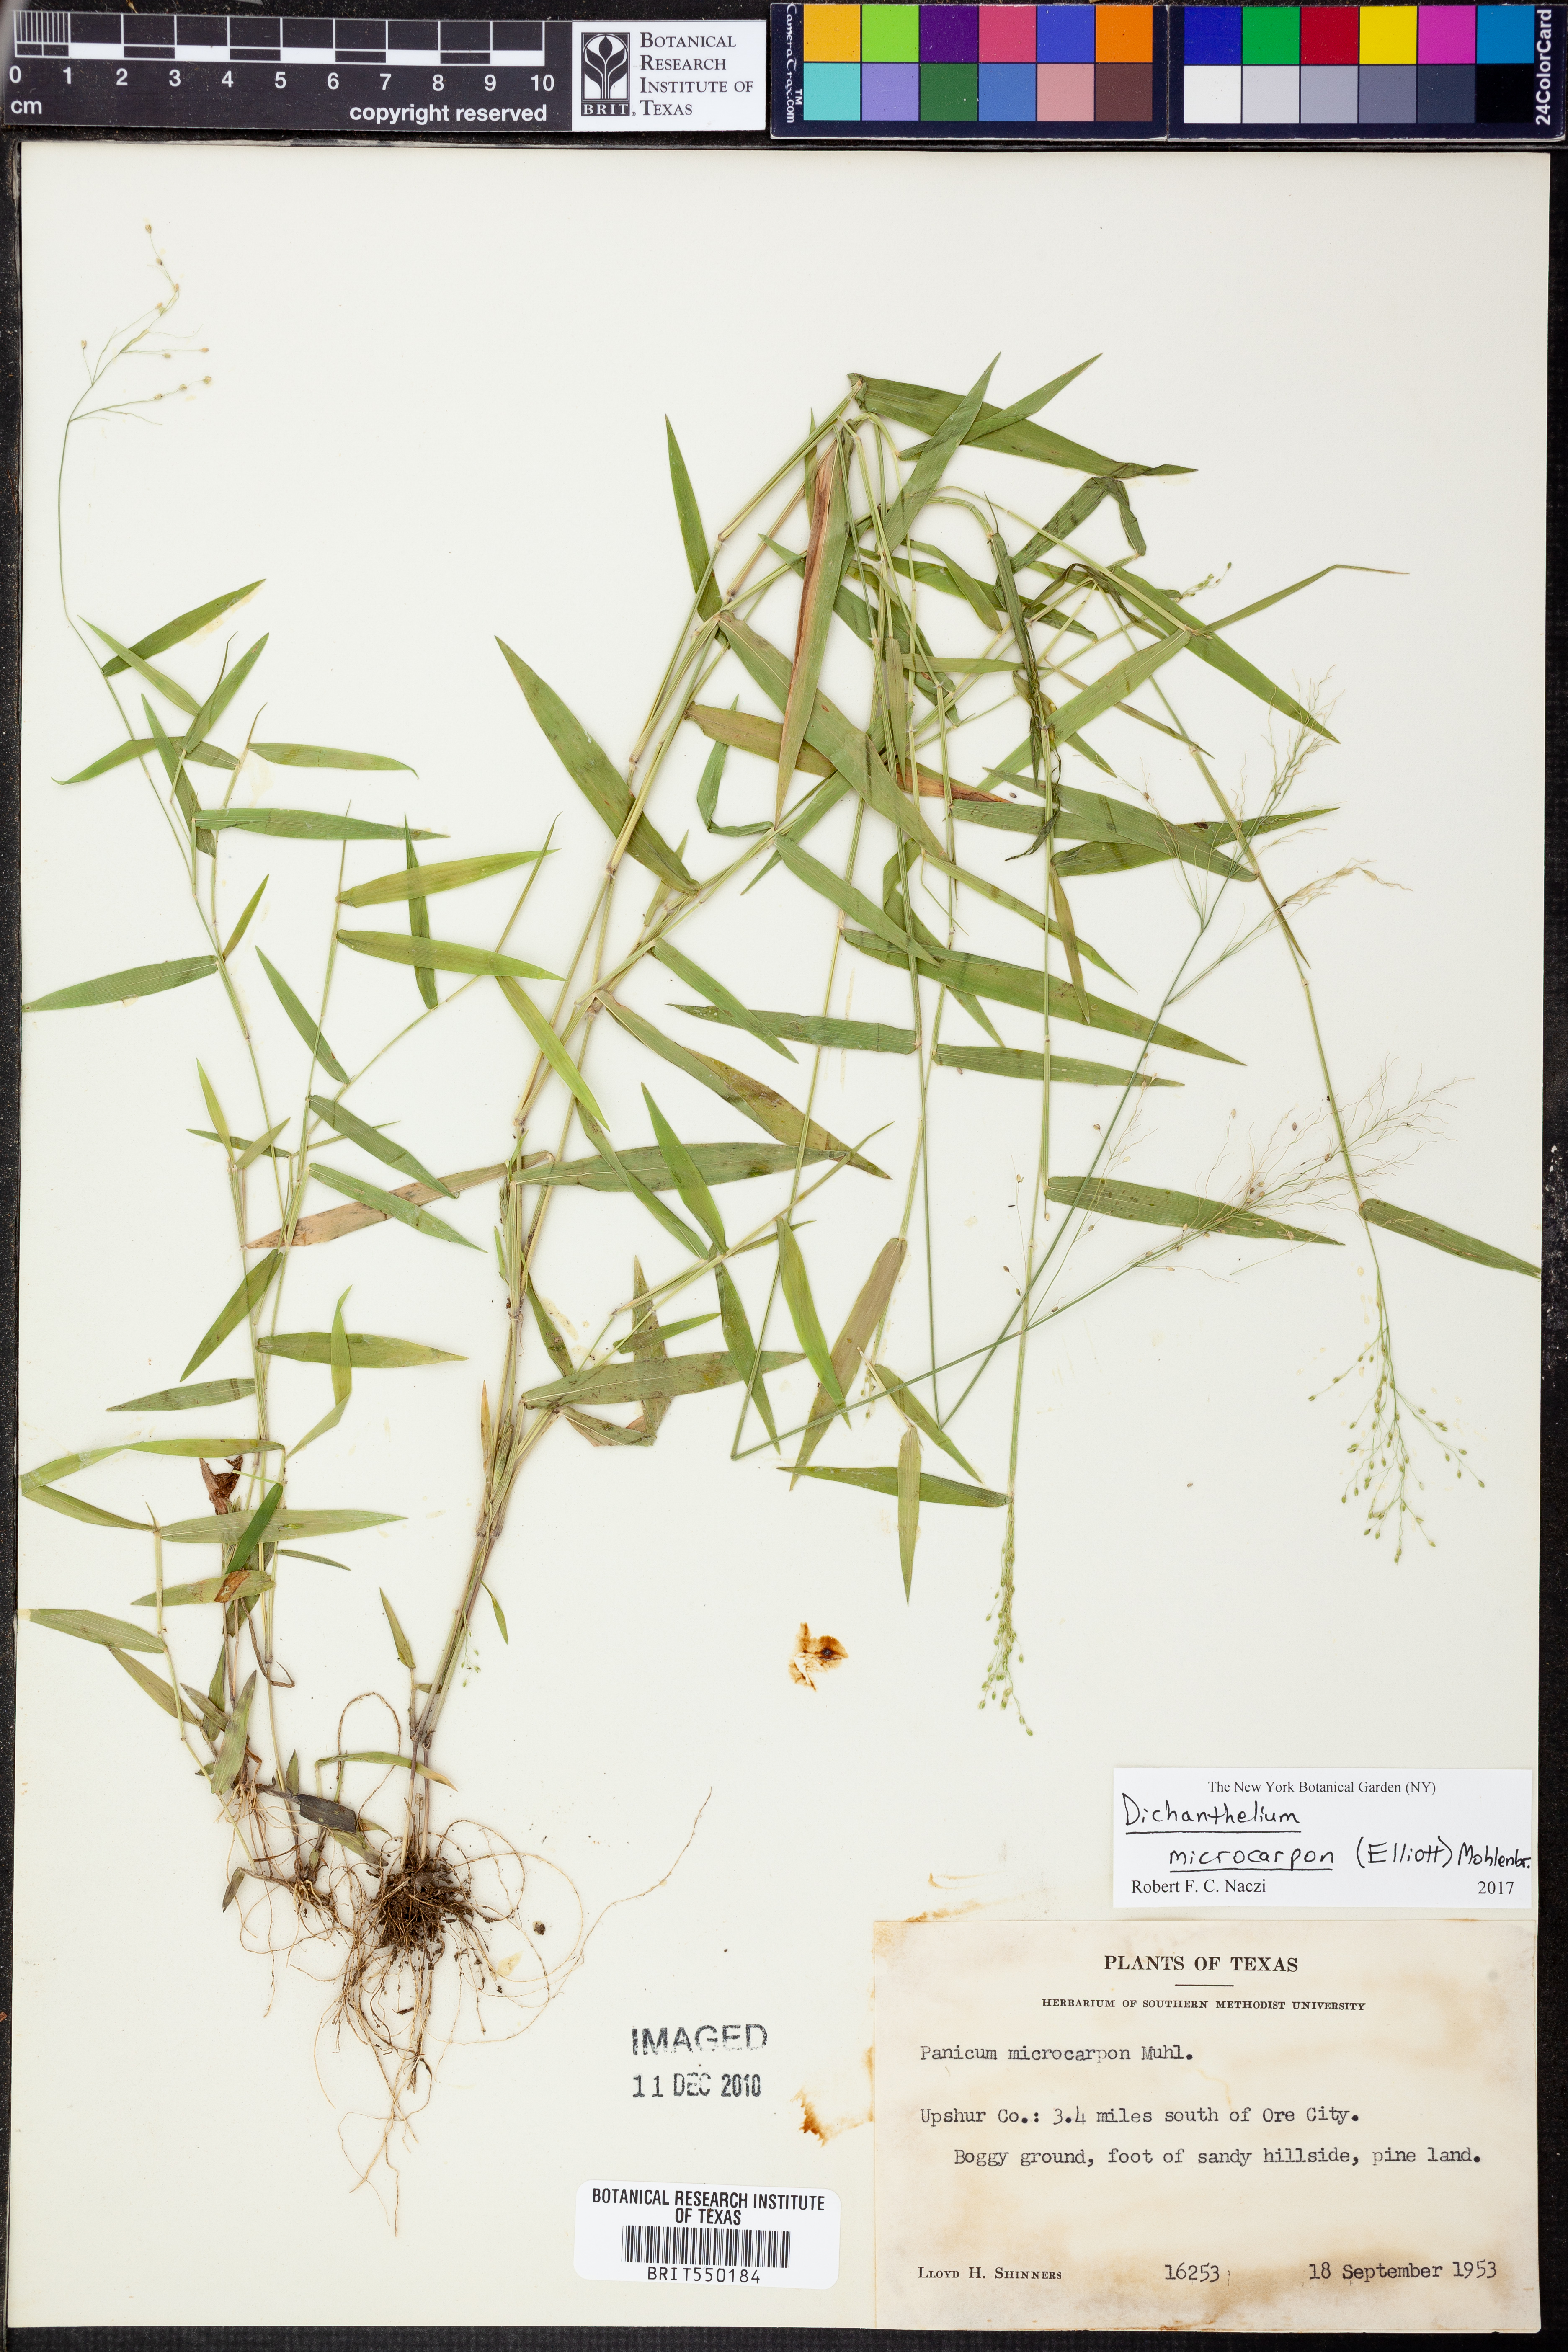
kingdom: Plantae
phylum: Tracheophyta
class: Liliopsida
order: Poales
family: Poaceae
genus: Dichanthelium
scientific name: Dichanthelium microcarpon
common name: Small-fruited witchgrass
